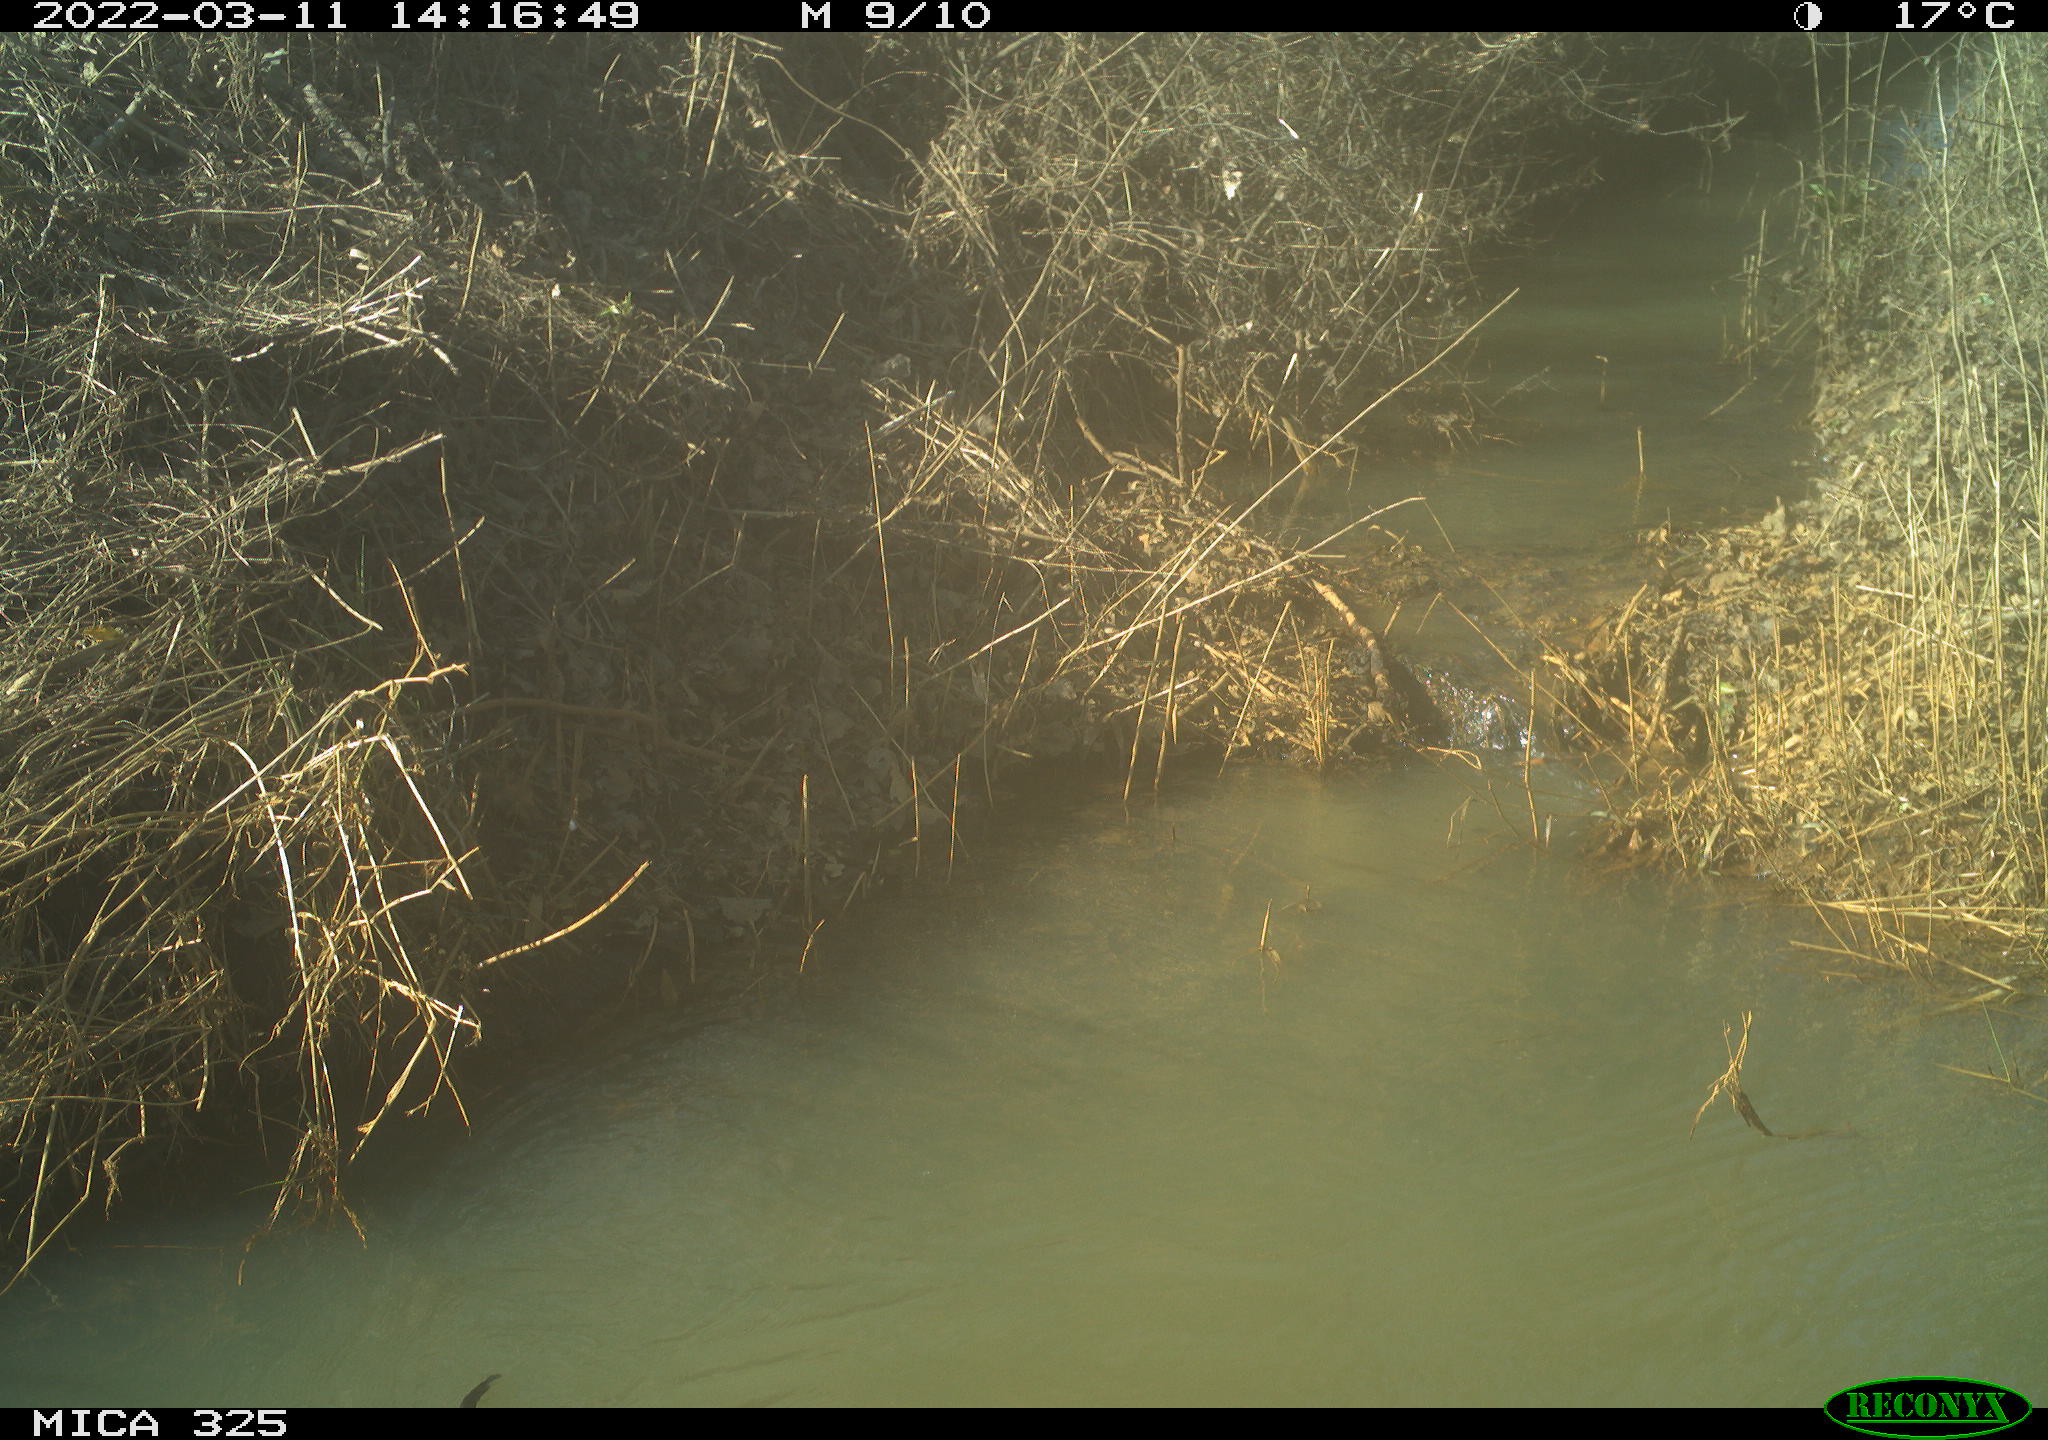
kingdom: Animalia
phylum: Chordata
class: Mammalia
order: Rodentia
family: Cricetidae
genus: Ondatra
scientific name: Ondatra zibethicus
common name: Muskrat
